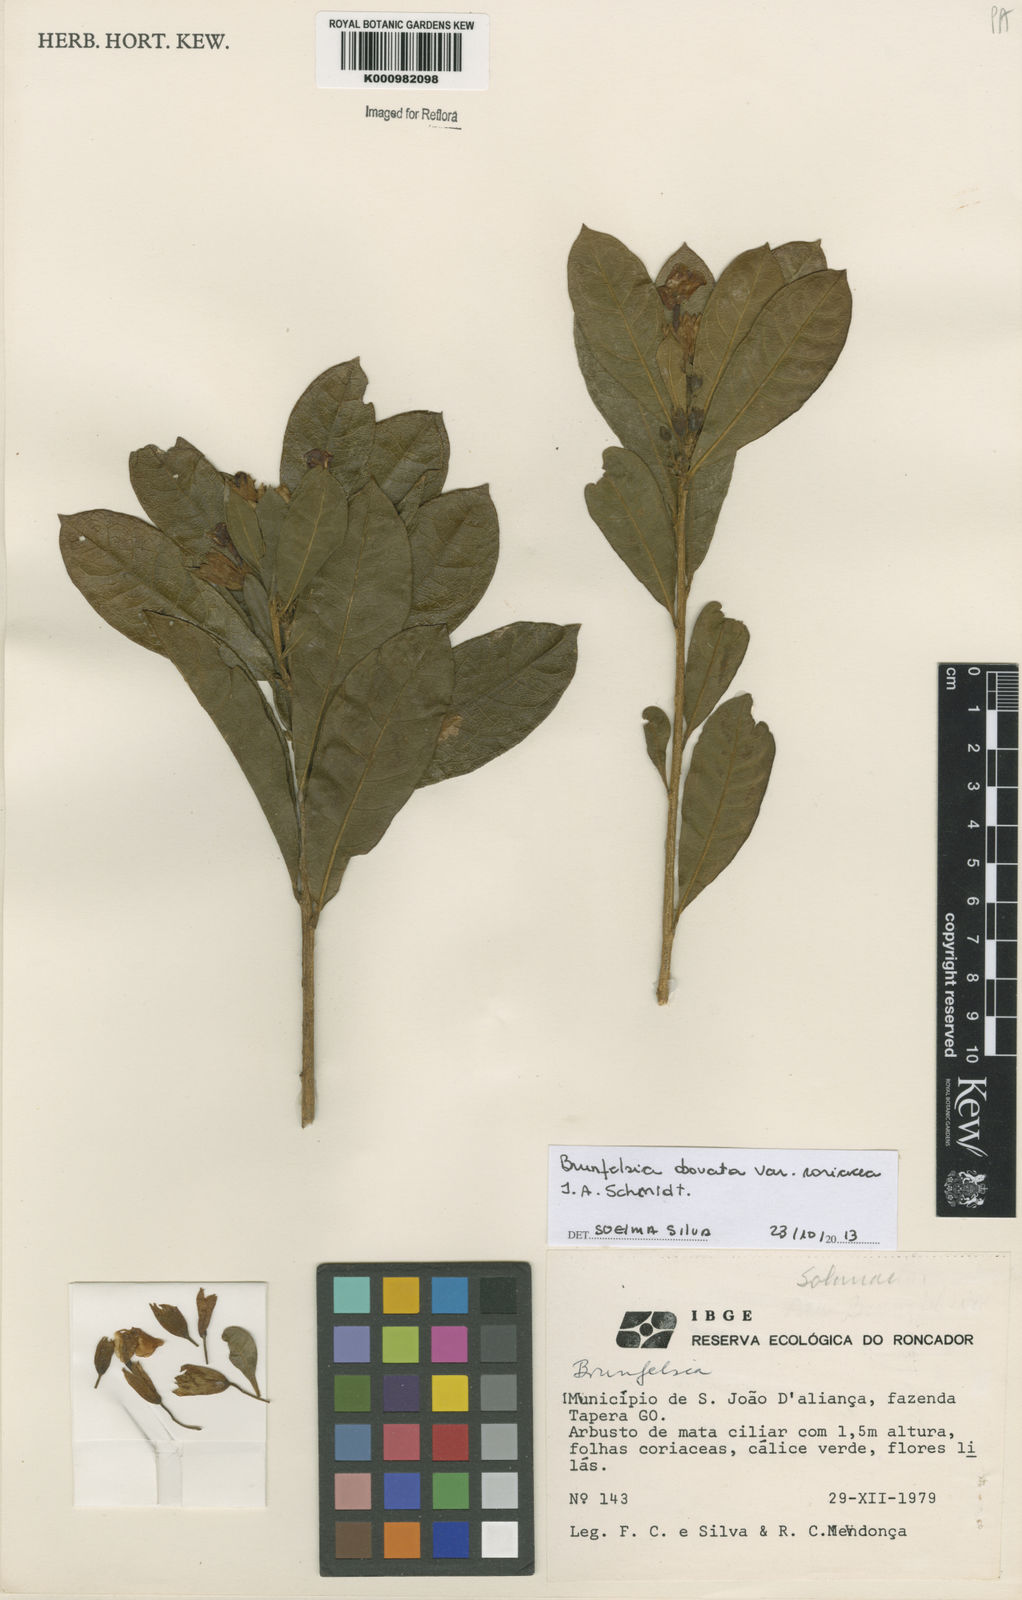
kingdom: Plantae
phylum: Tracheophyta
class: Magnoliopsida
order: Solanales
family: Solanaceae
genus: Brunfelsia
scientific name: Brunfelsia
